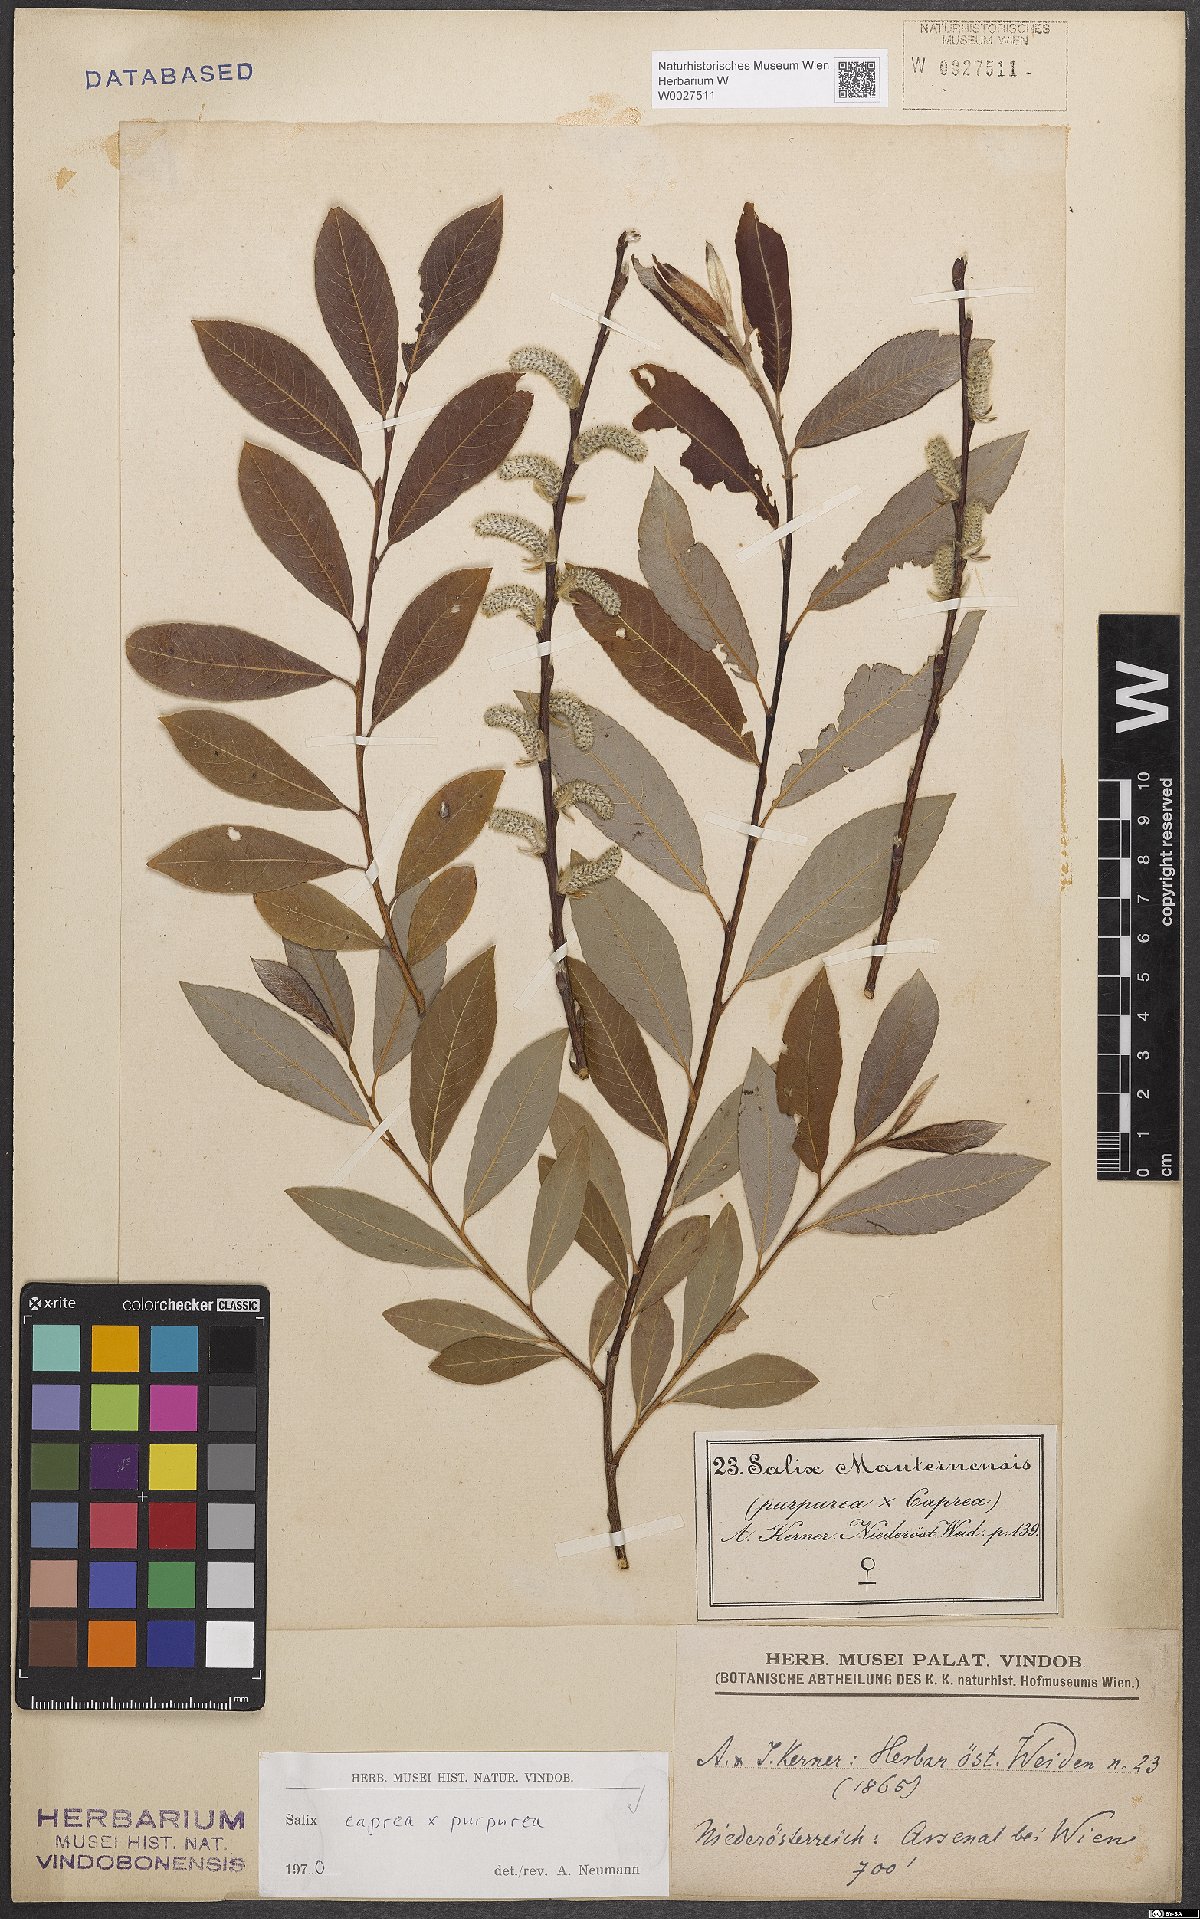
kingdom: Plantae
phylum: Tracheophyta
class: Magnoliopsida
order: Malpighiales
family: Salicaceae
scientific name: Salicaceae
